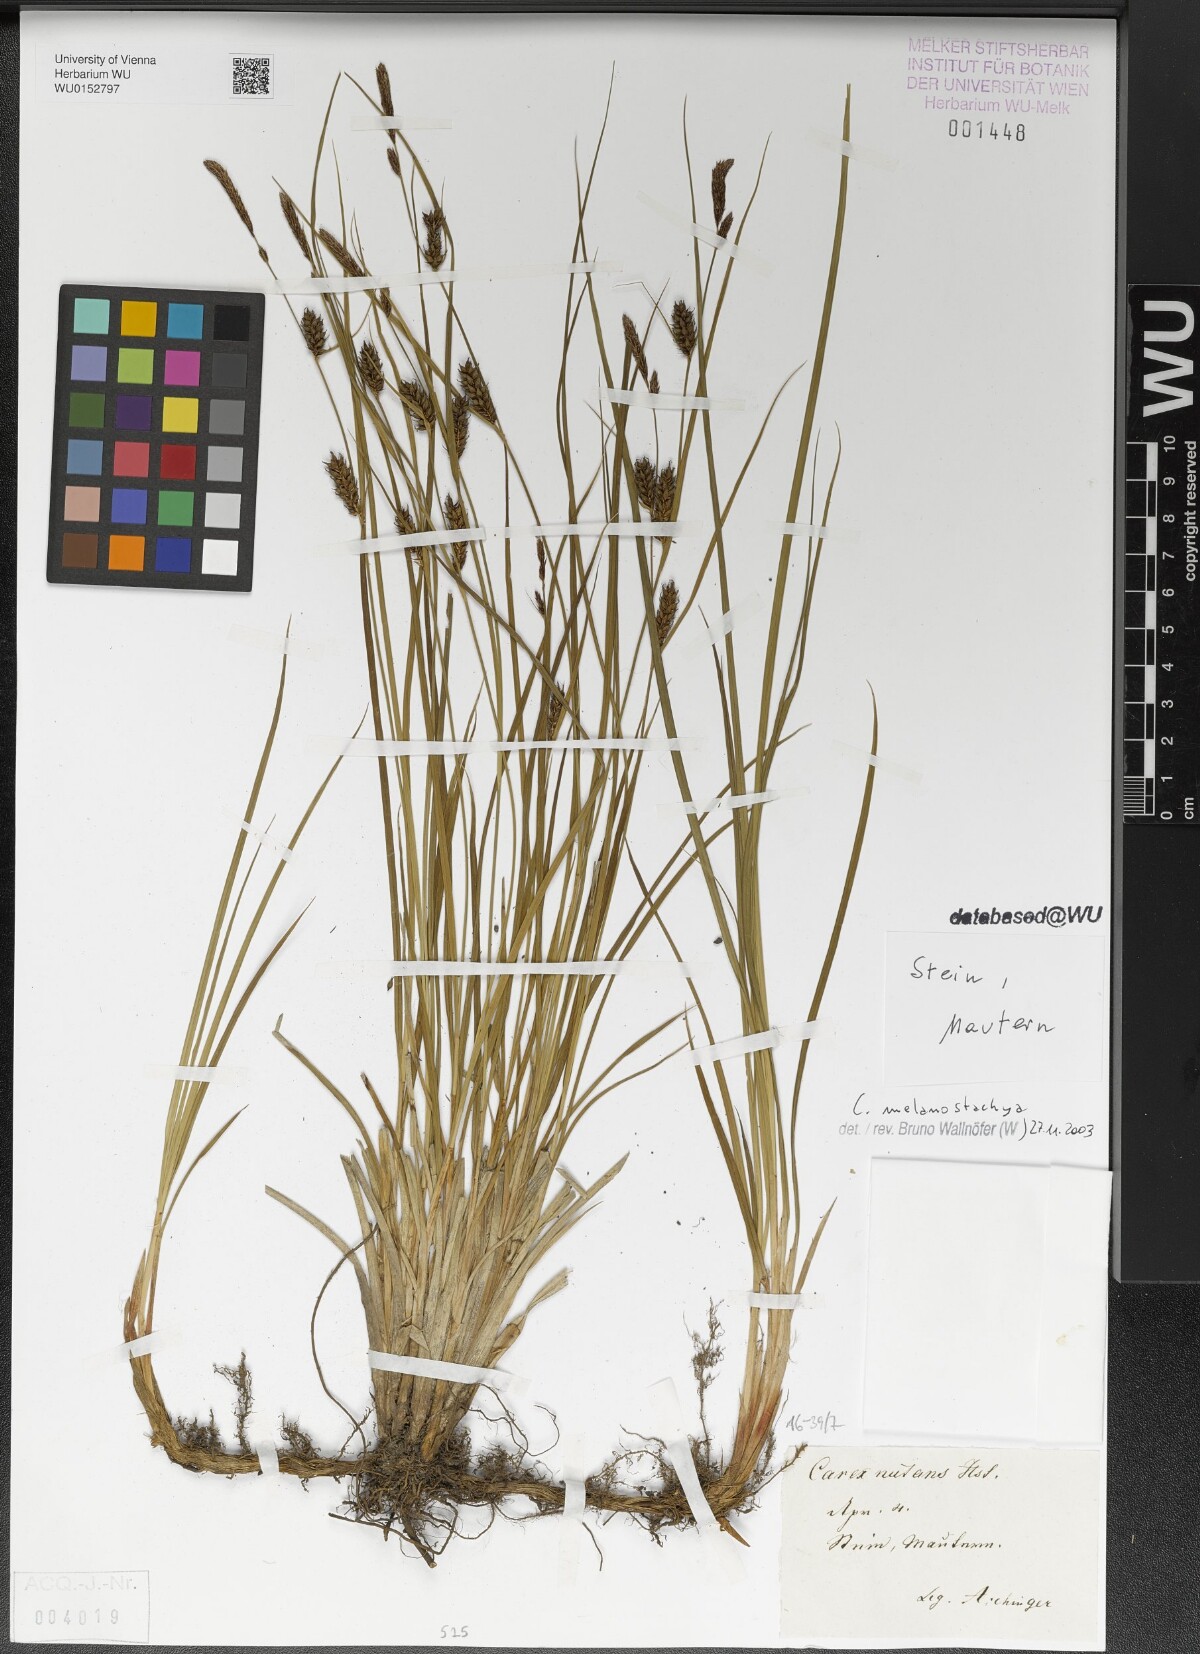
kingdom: Plantae
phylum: Tracheophyta
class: Liliopsida
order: Poales
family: Cyperaceae
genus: Carex
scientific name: Carex melanostachya
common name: Black-spiked sedge
